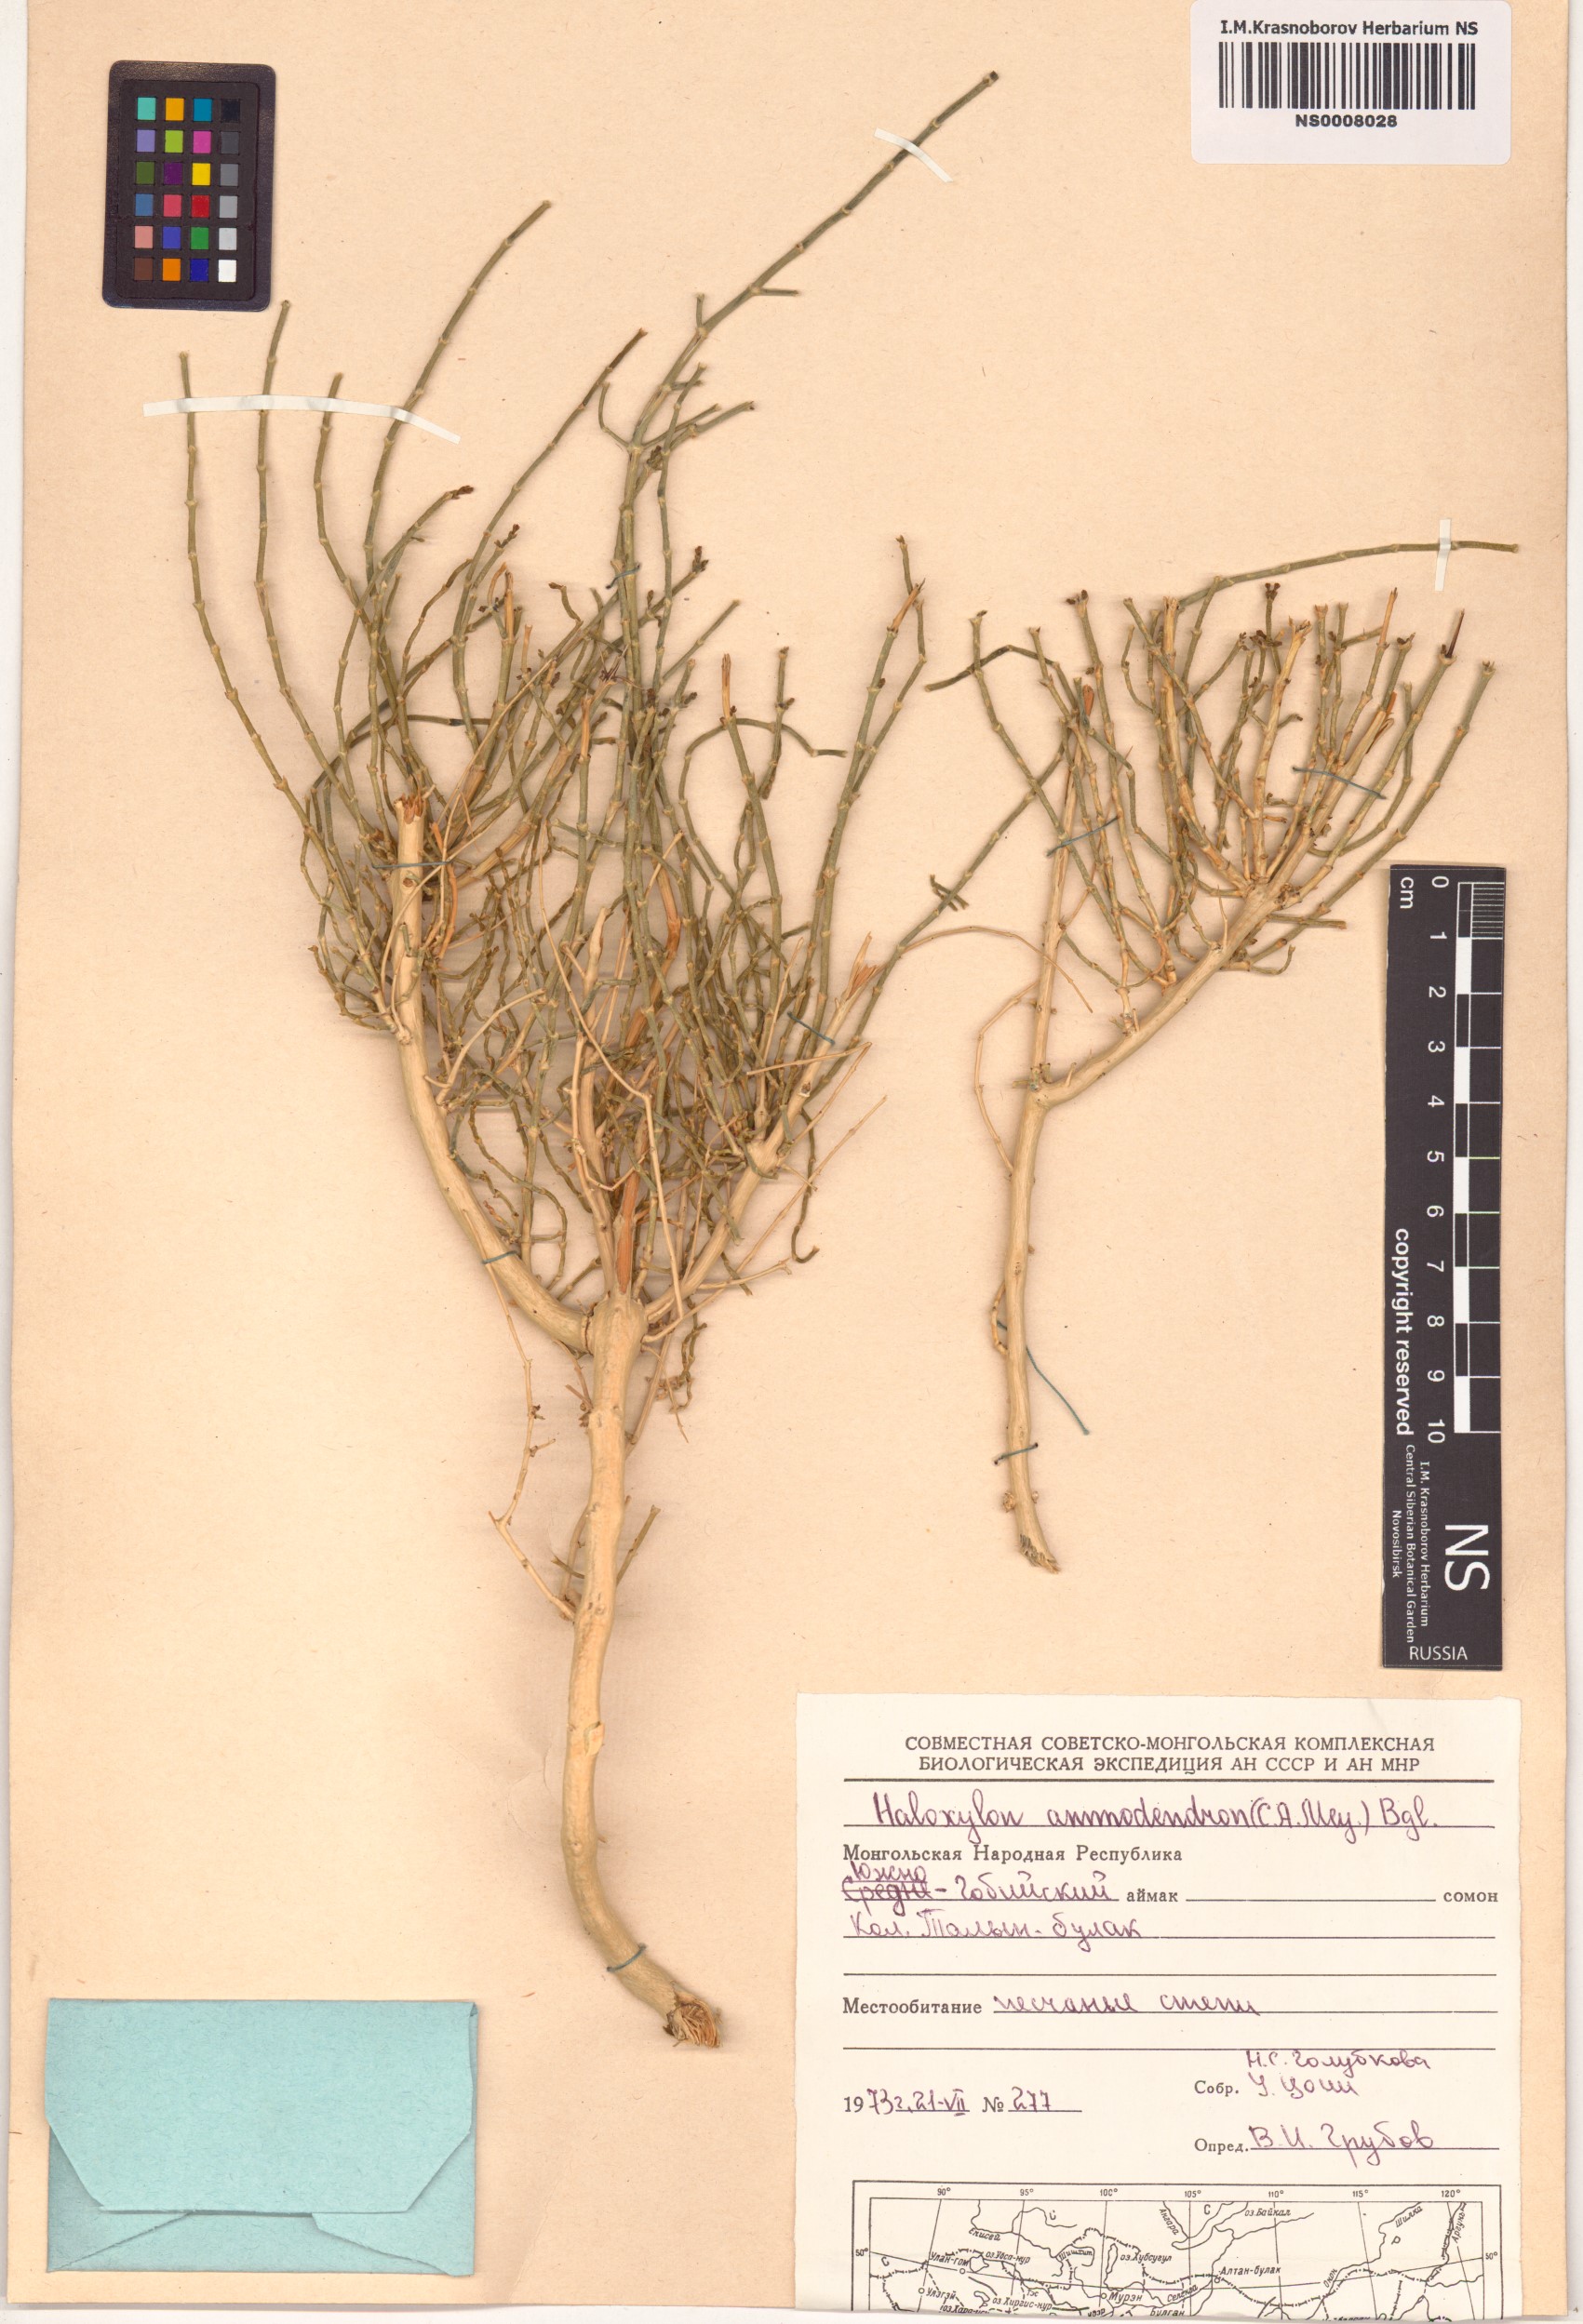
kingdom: Plantae
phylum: Tracheophyta
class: Magnoliopsida
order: Caryophyllales
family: Amaranthaceae
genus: Haloxylon
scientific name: Haloxylon ammodendron
